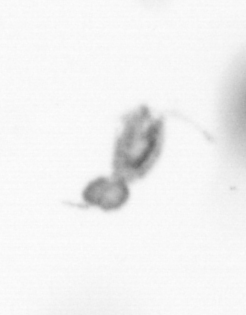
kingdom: Animalia
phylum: Arthropoda
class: Copepoda
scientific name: Copepoda
